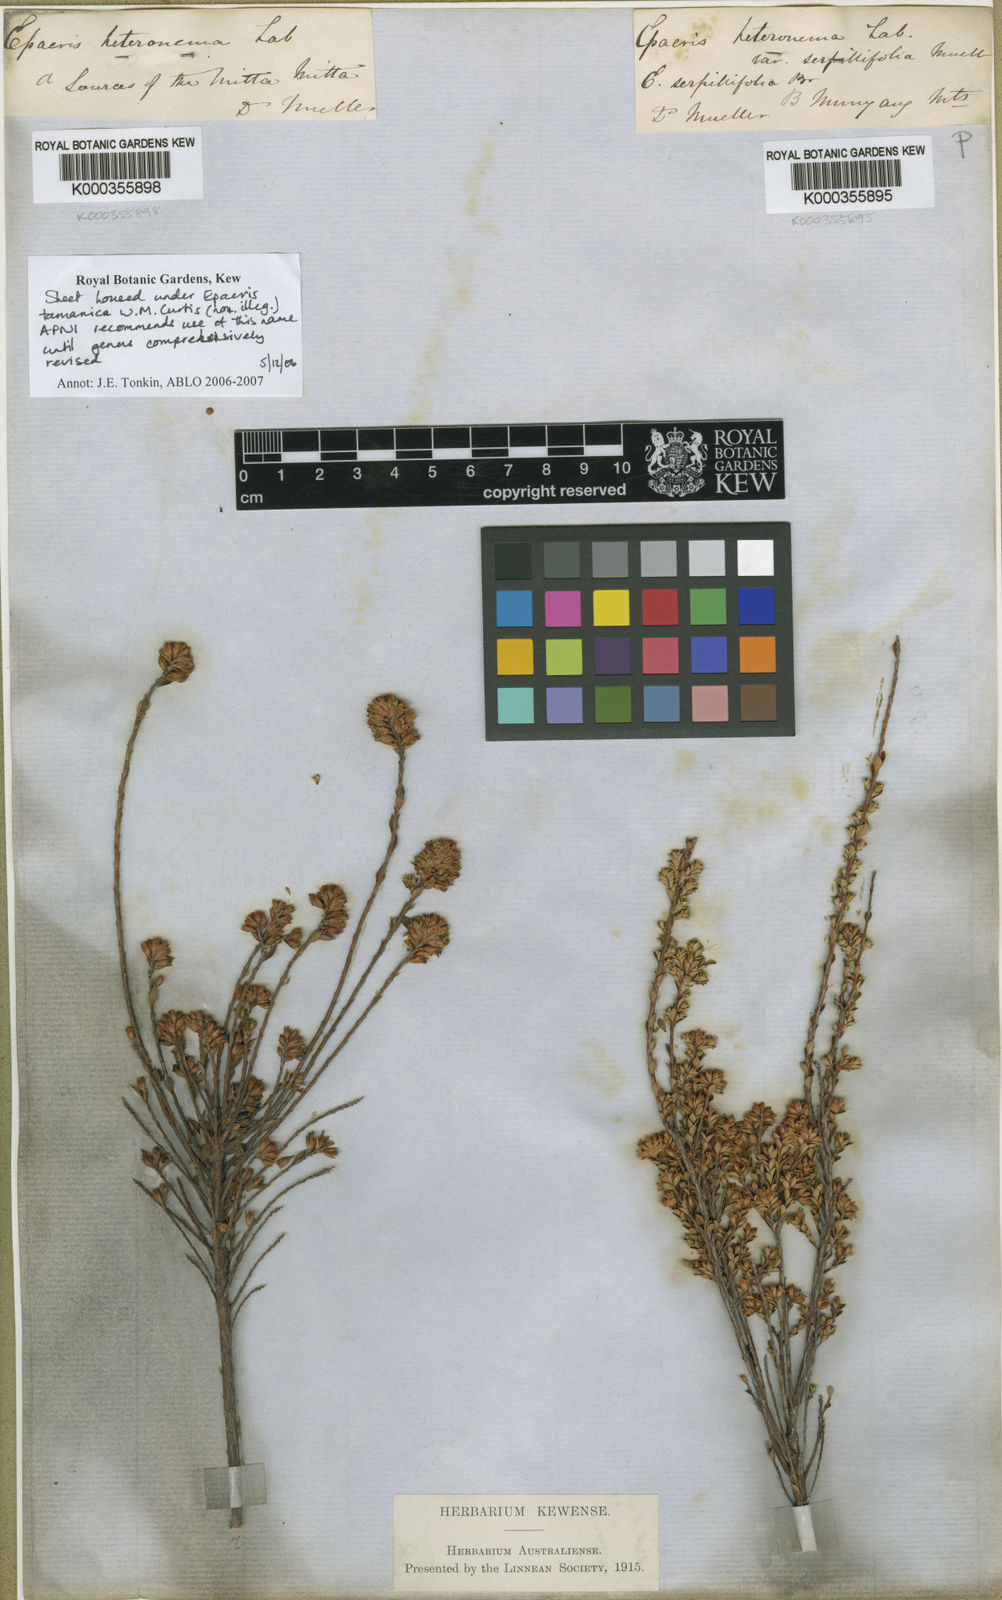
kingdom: Plantae
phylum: Tracheophyta
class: Magnoliopsida
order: Ericales
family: Ericaceae
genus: Epacris
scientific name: Epacris serpyllifolia
